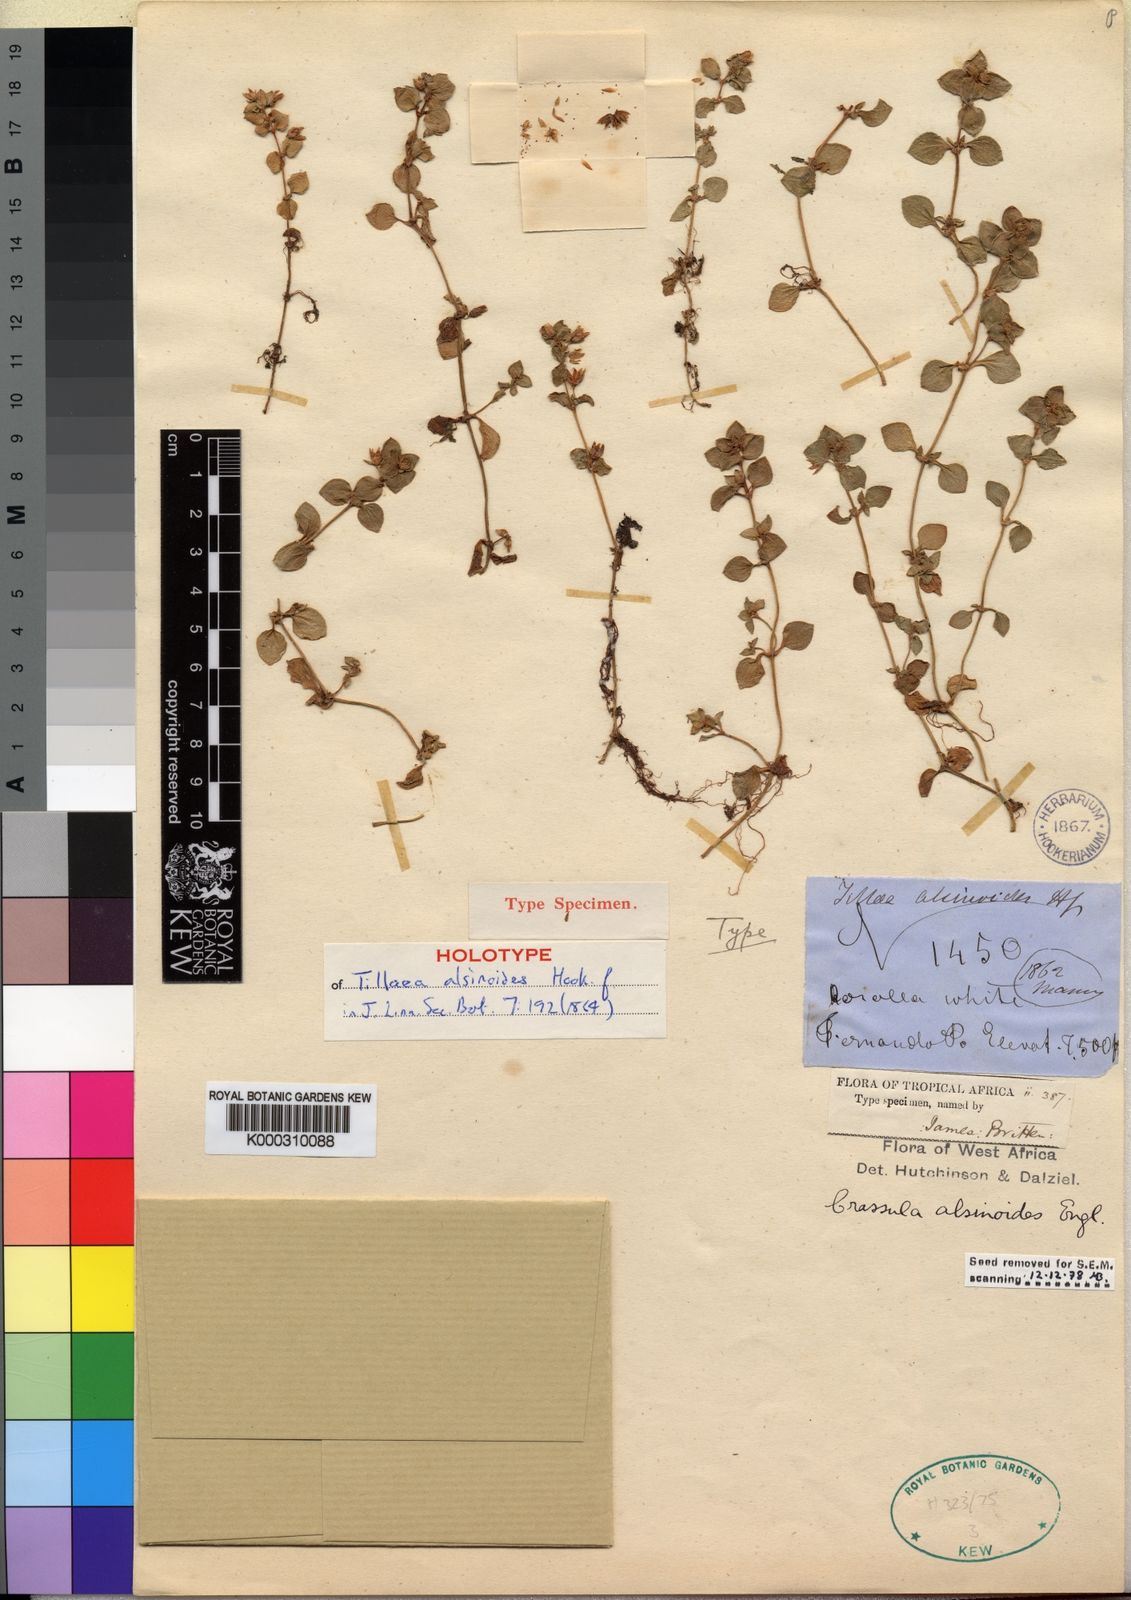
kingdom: Plantae
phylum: Tracheophyta
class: Magnoliopsida
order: Saxifragales
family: Crassulaceae
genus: Crassula
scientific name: Crassula alsinoides
